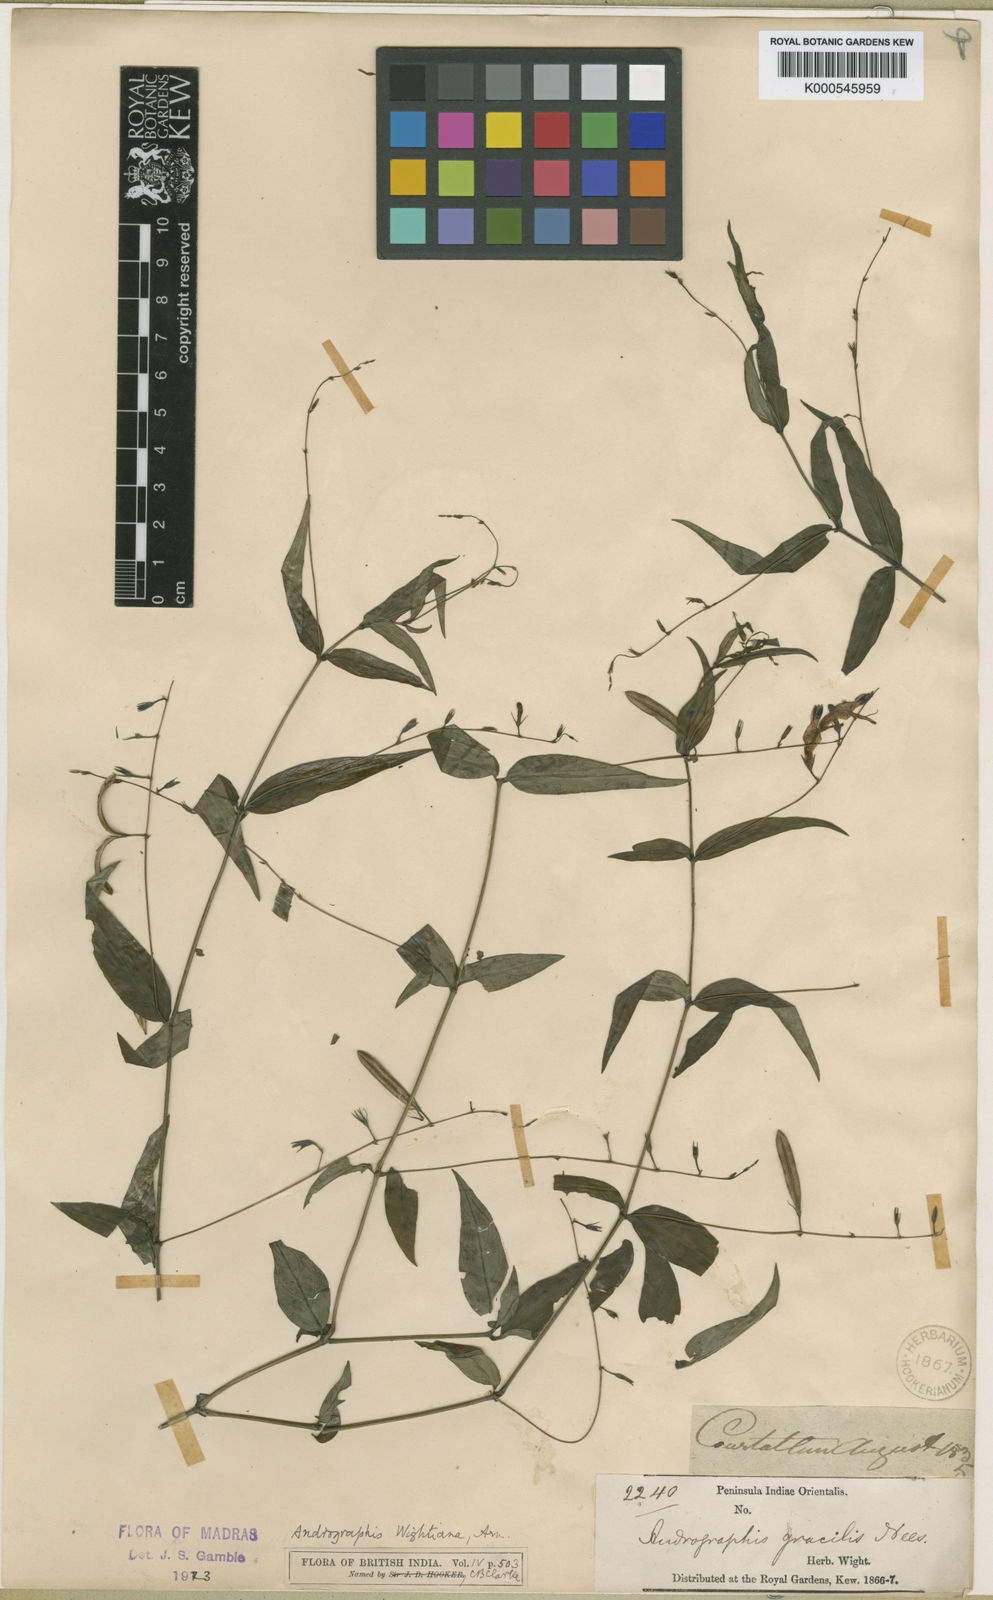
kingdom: Plantae
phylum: Tracheophyta
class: Magnoliopsida
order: Lamiales
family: Acanthaceae
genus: Andrographis
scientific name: Andrographis atropurpurea
